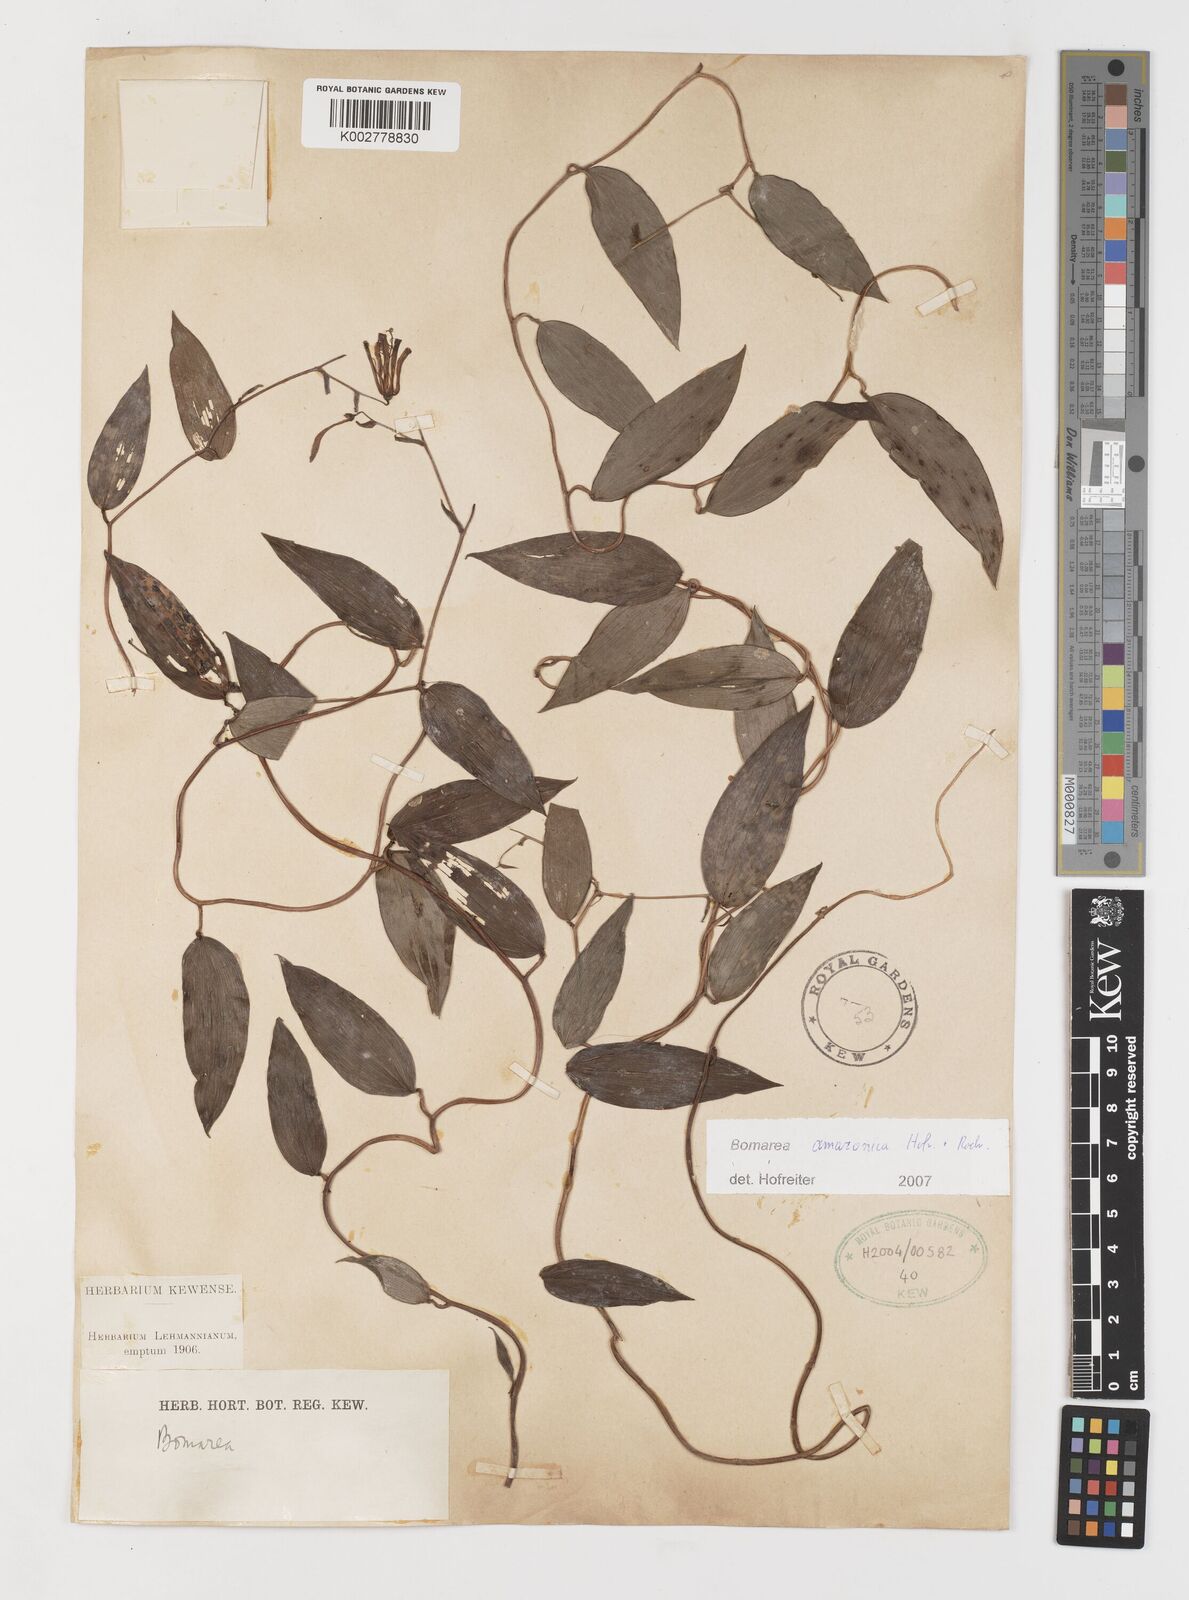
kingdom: Plantae
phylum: Tracheophyta
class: Liliopsida
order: Liliales
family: Alstroemeriaceae
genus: Bomarea
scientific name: Bomarea amazonica
